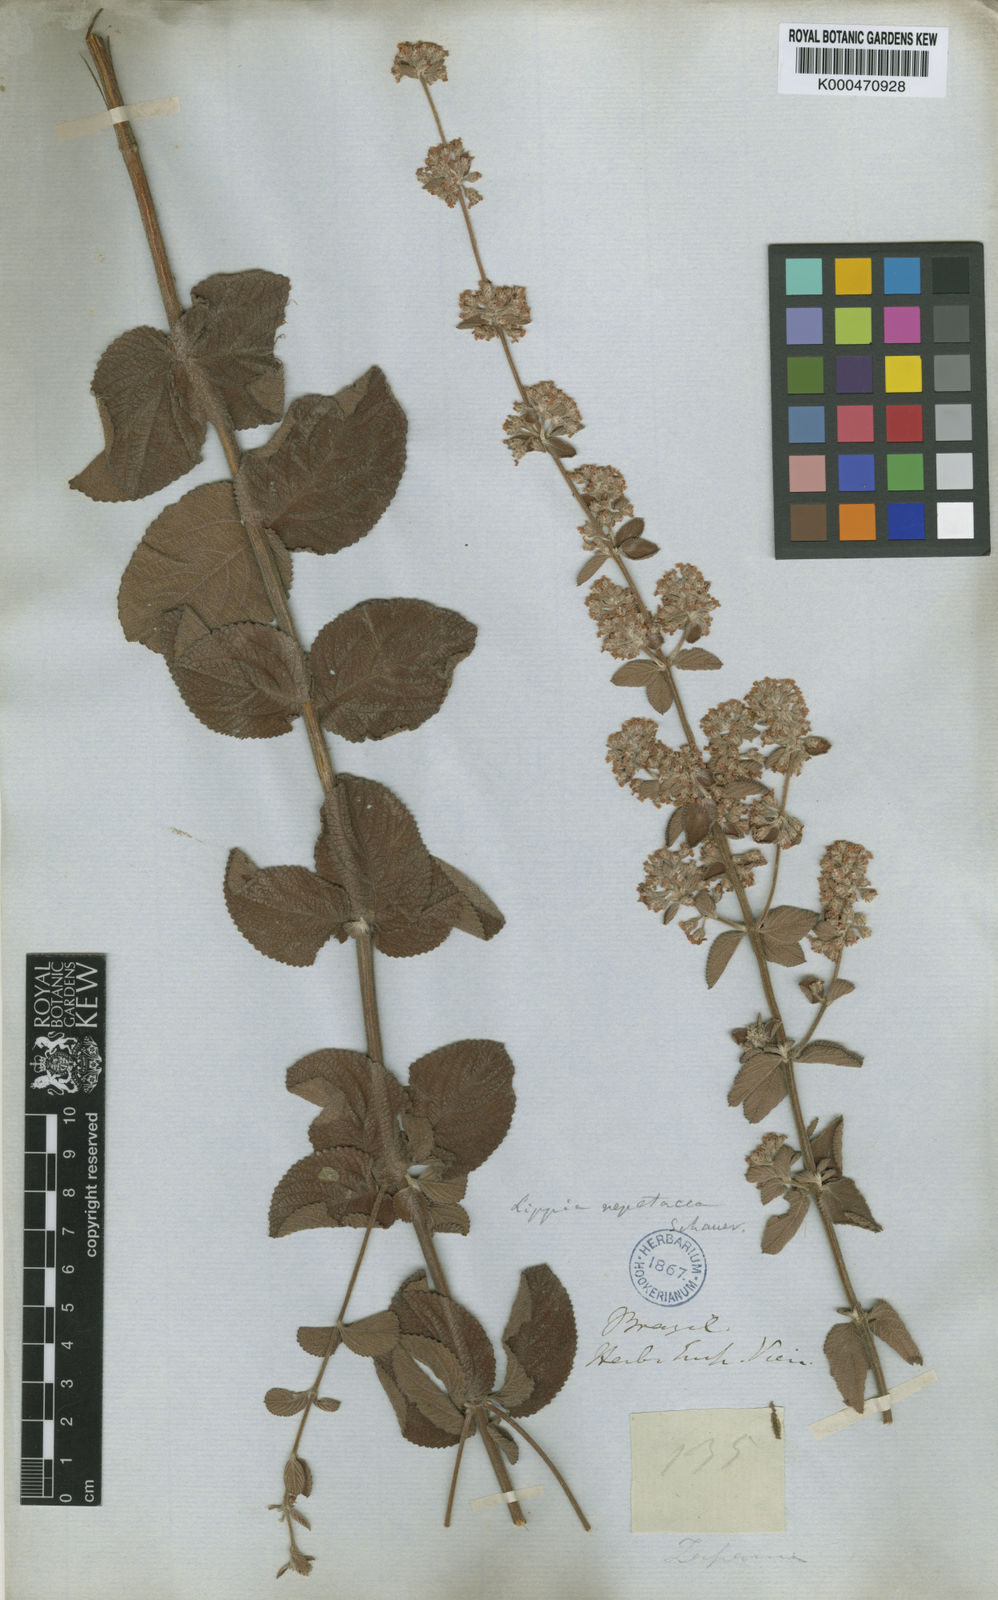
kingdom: Plantae
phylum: Tracheophyta
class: Magnoliopsida
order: Lamiales
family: Verbenaceae
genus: Lippia
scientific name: Lippia martiana
